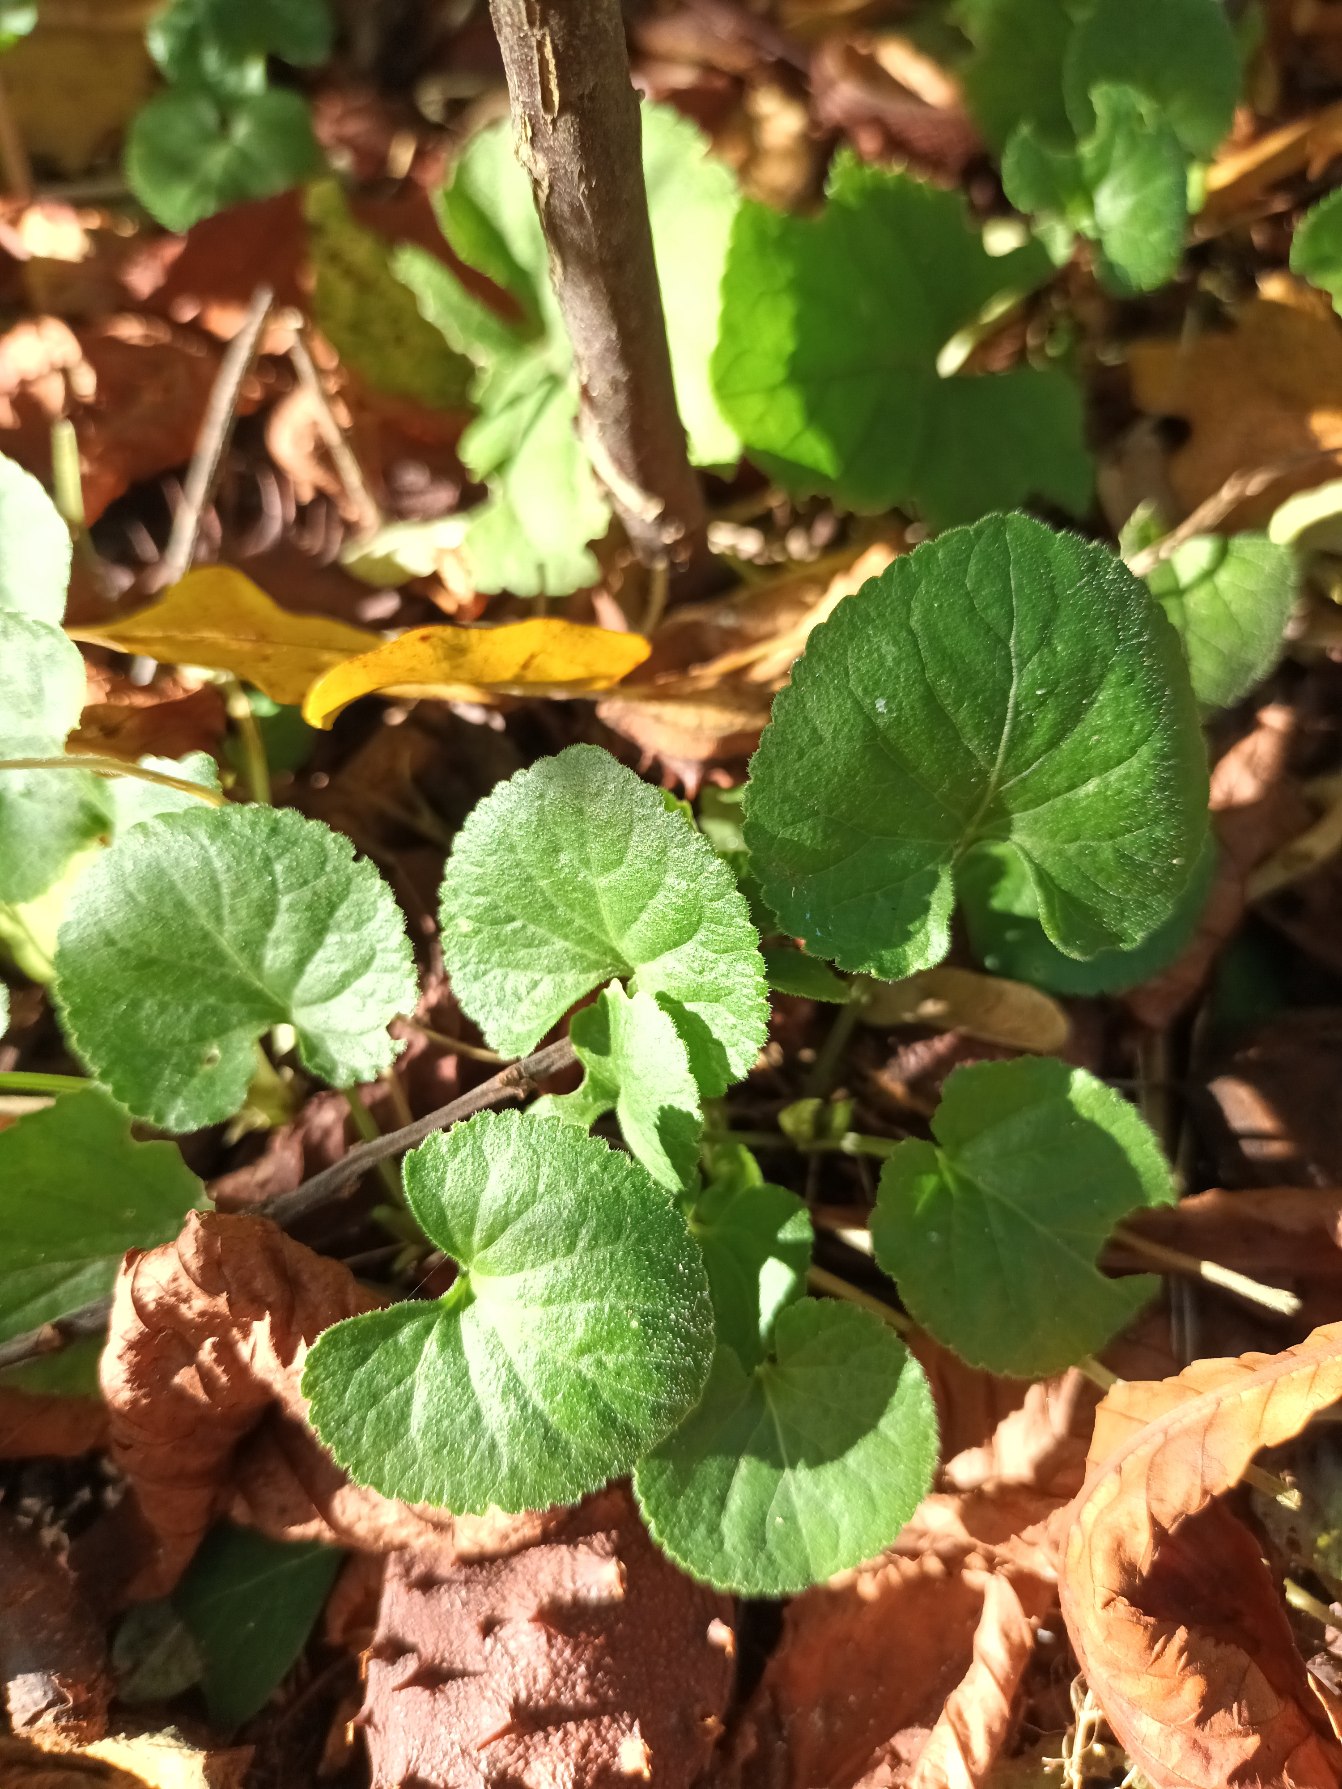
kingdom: Plantae
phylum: Tracheophyta
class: Magnoliopsida
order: Malpighiales
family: Violaceae
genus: Viola
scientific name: Viola odorata
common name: Marts-viol
